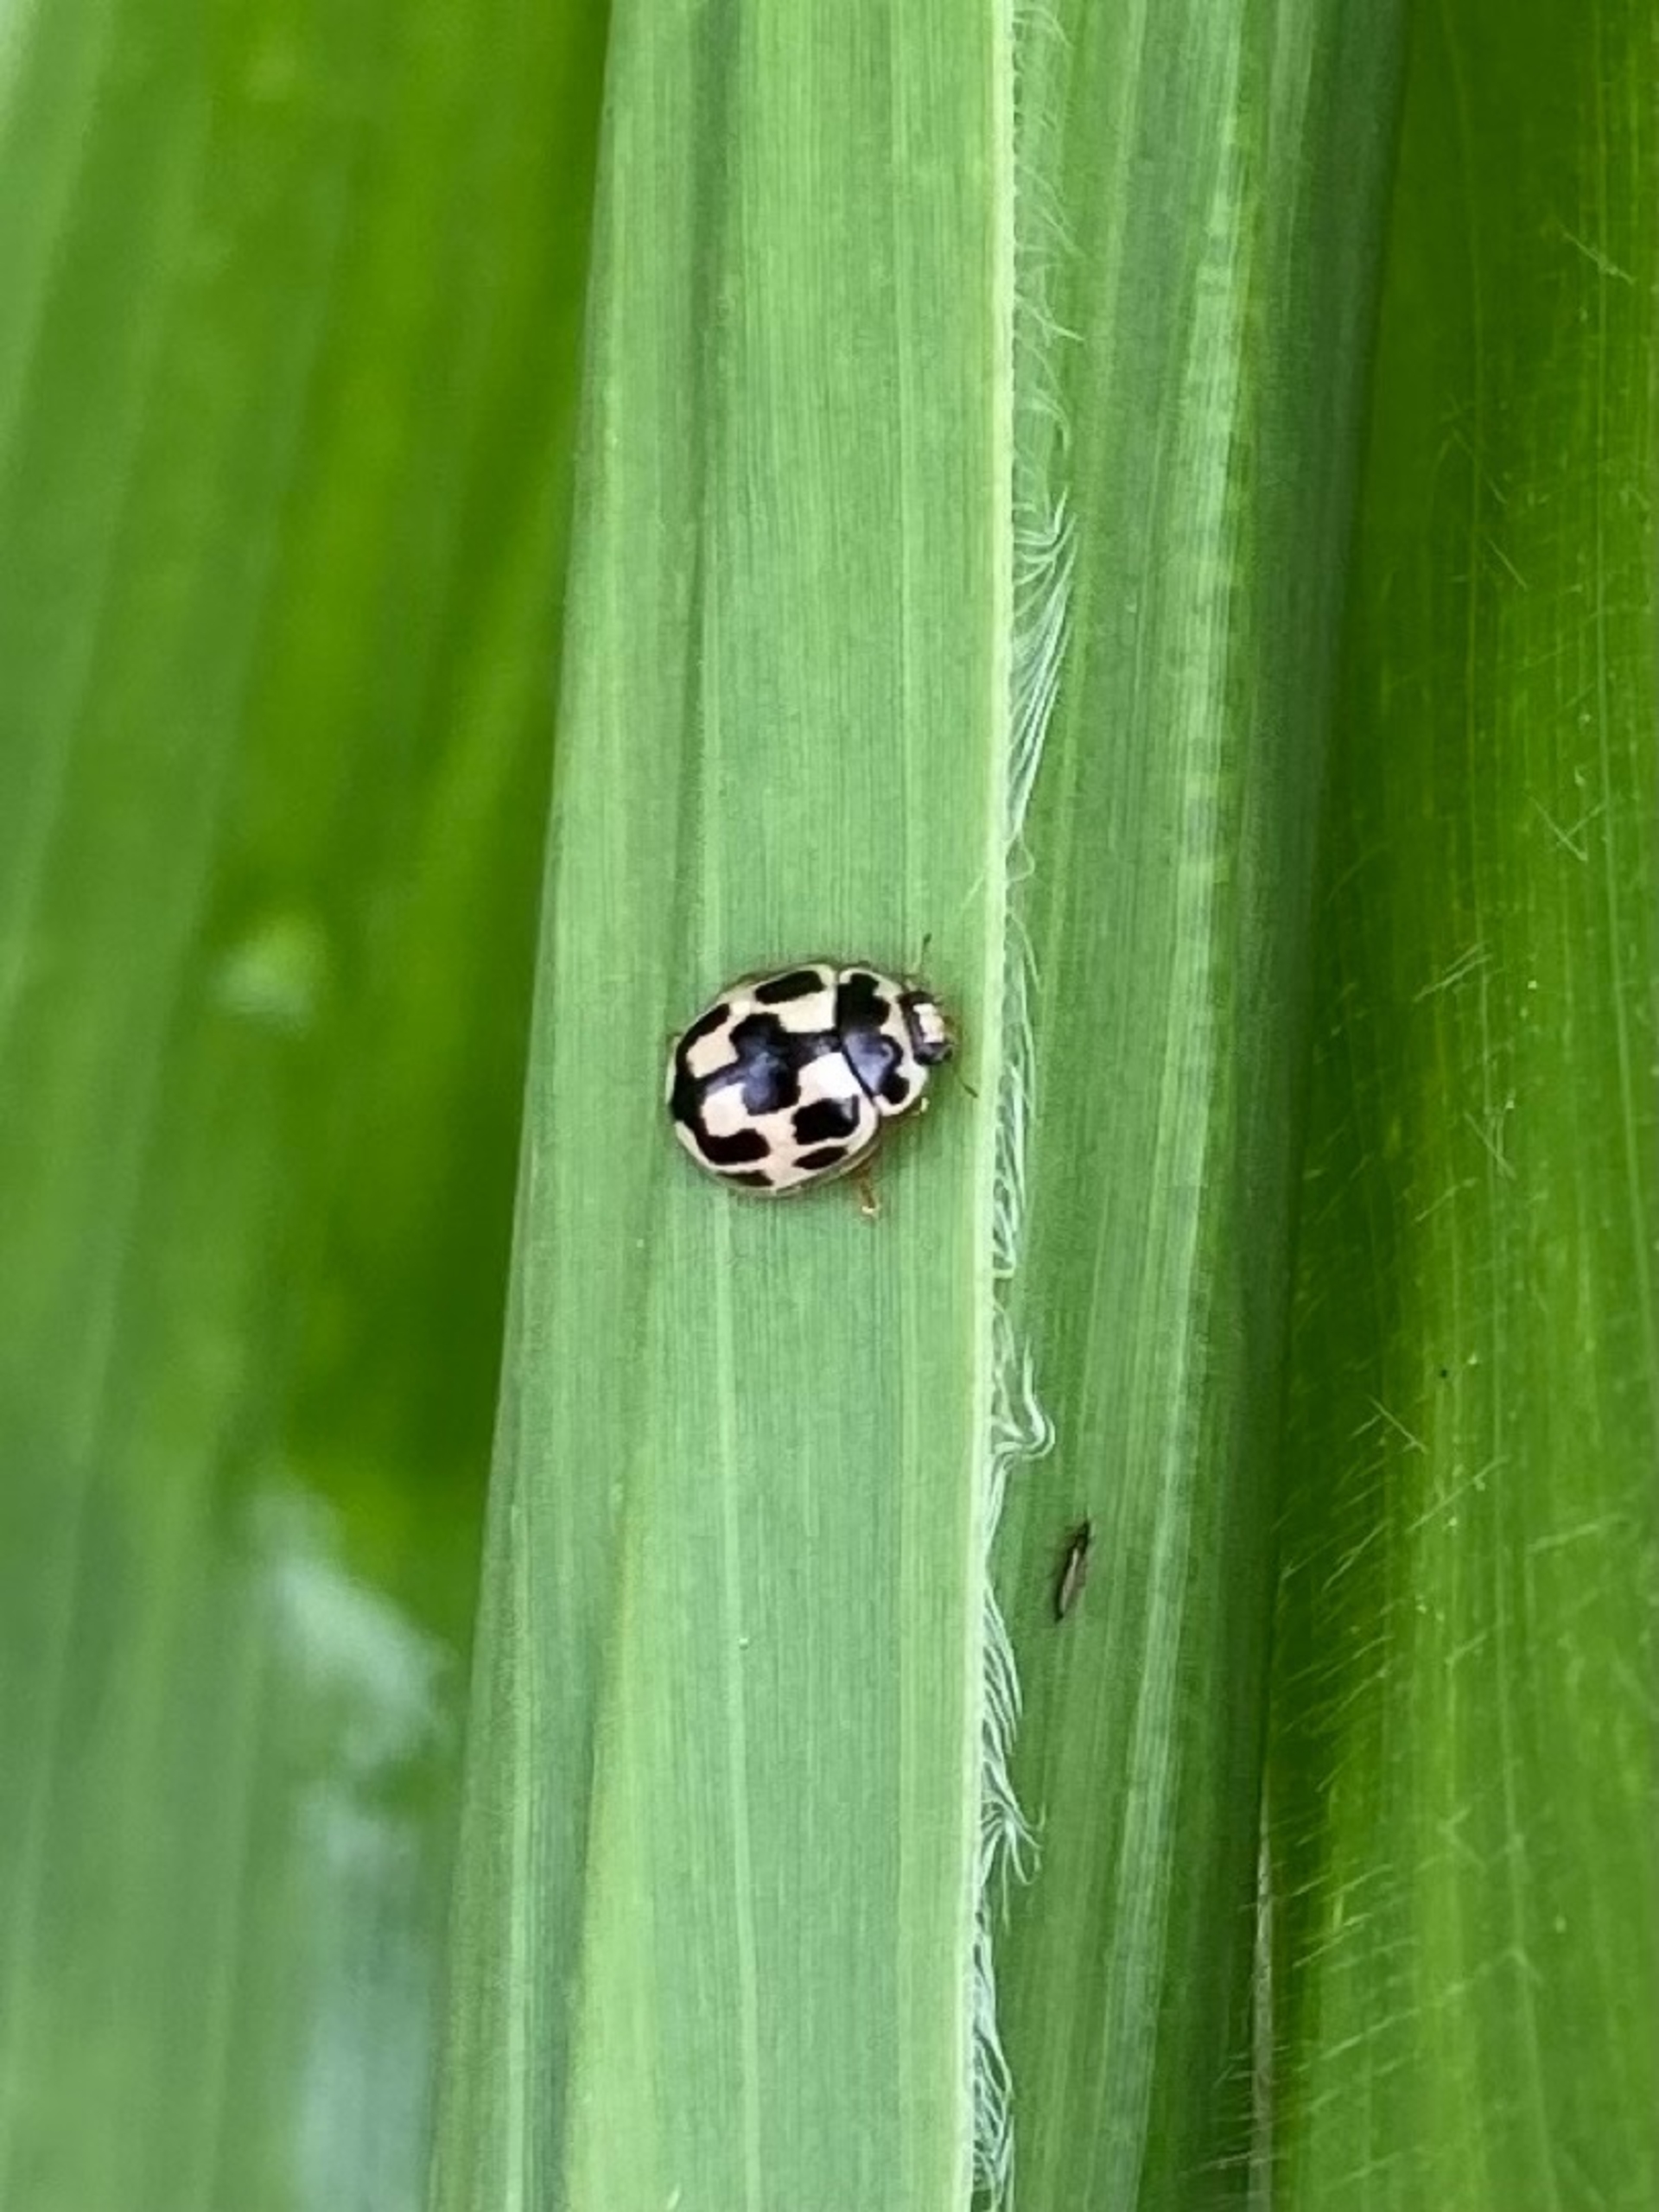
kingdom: Animalia
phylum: Arthropoda
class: Insecta
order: Coleoptera
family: Coccinellidae
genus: Propylaea
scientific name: Propylaea quatuordecimpunctata
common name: Skakbræt
